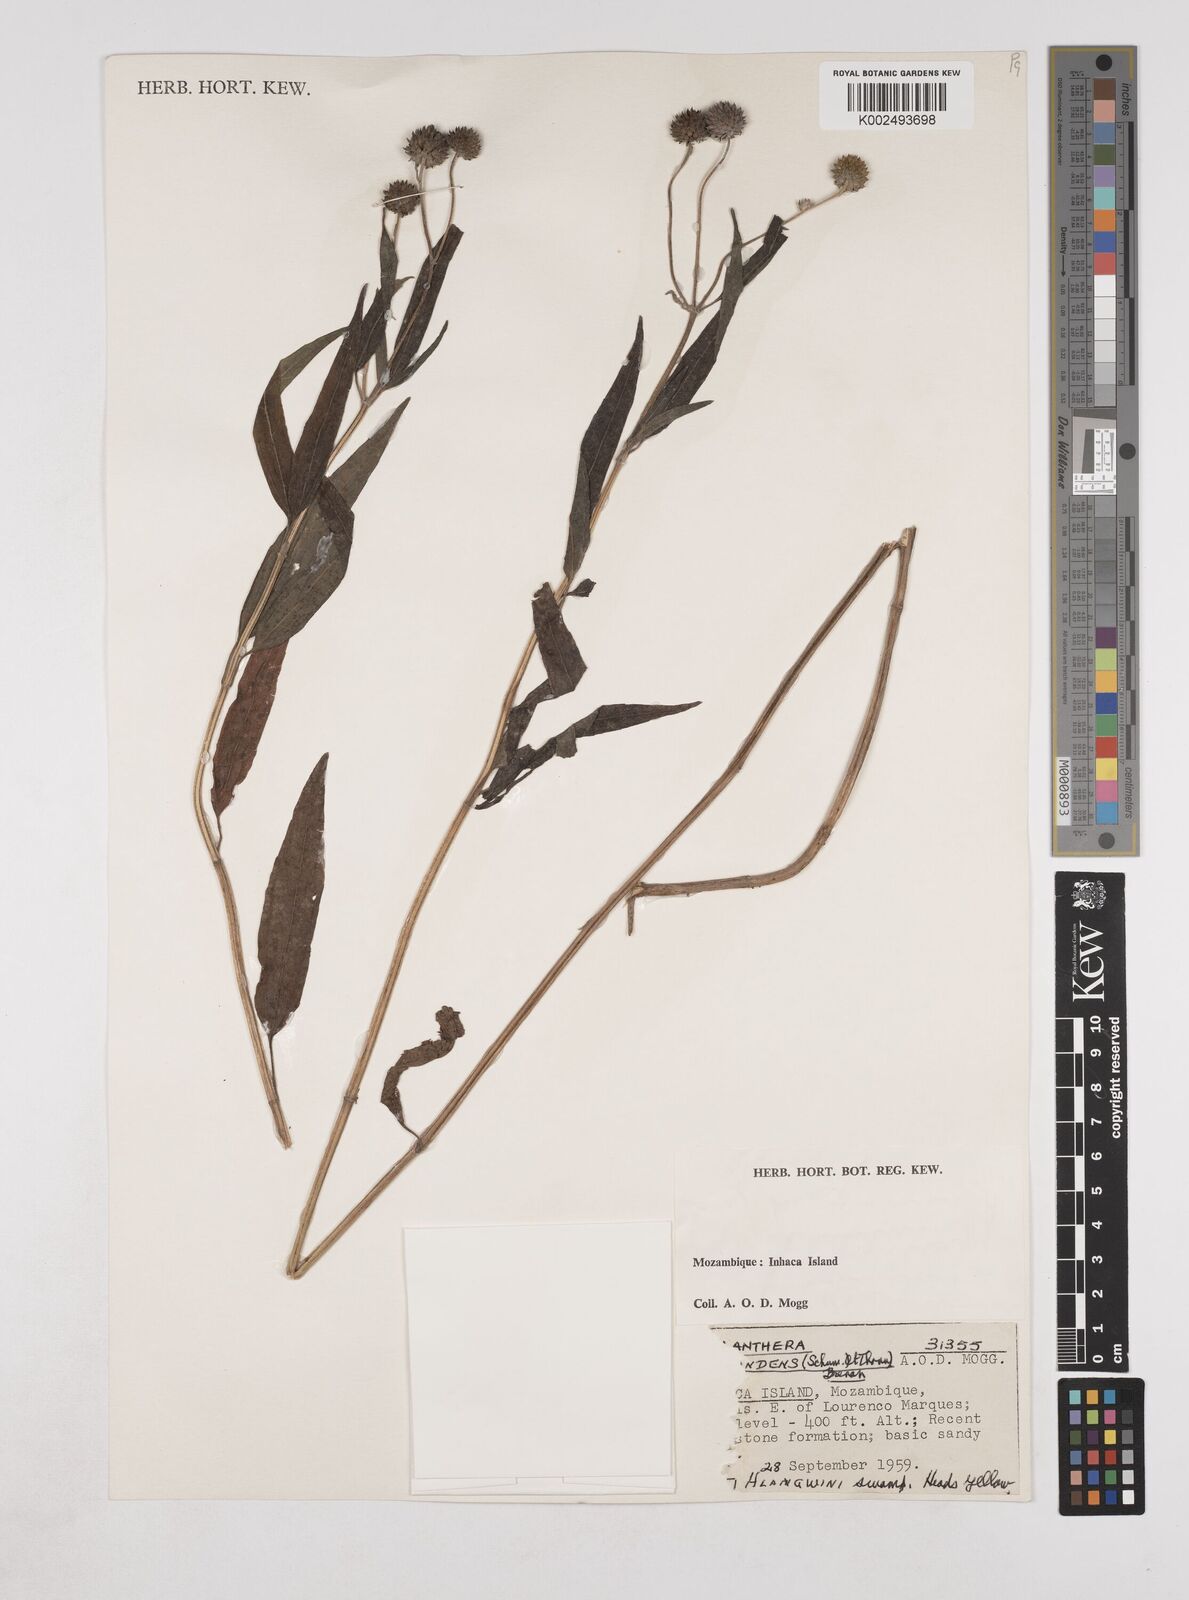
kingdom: Plantae
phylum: Tracheophyta
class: Magnoliopsida
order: Asterales
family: Asteraceae
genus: Lipotriche
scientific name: Lipotriche scandens
